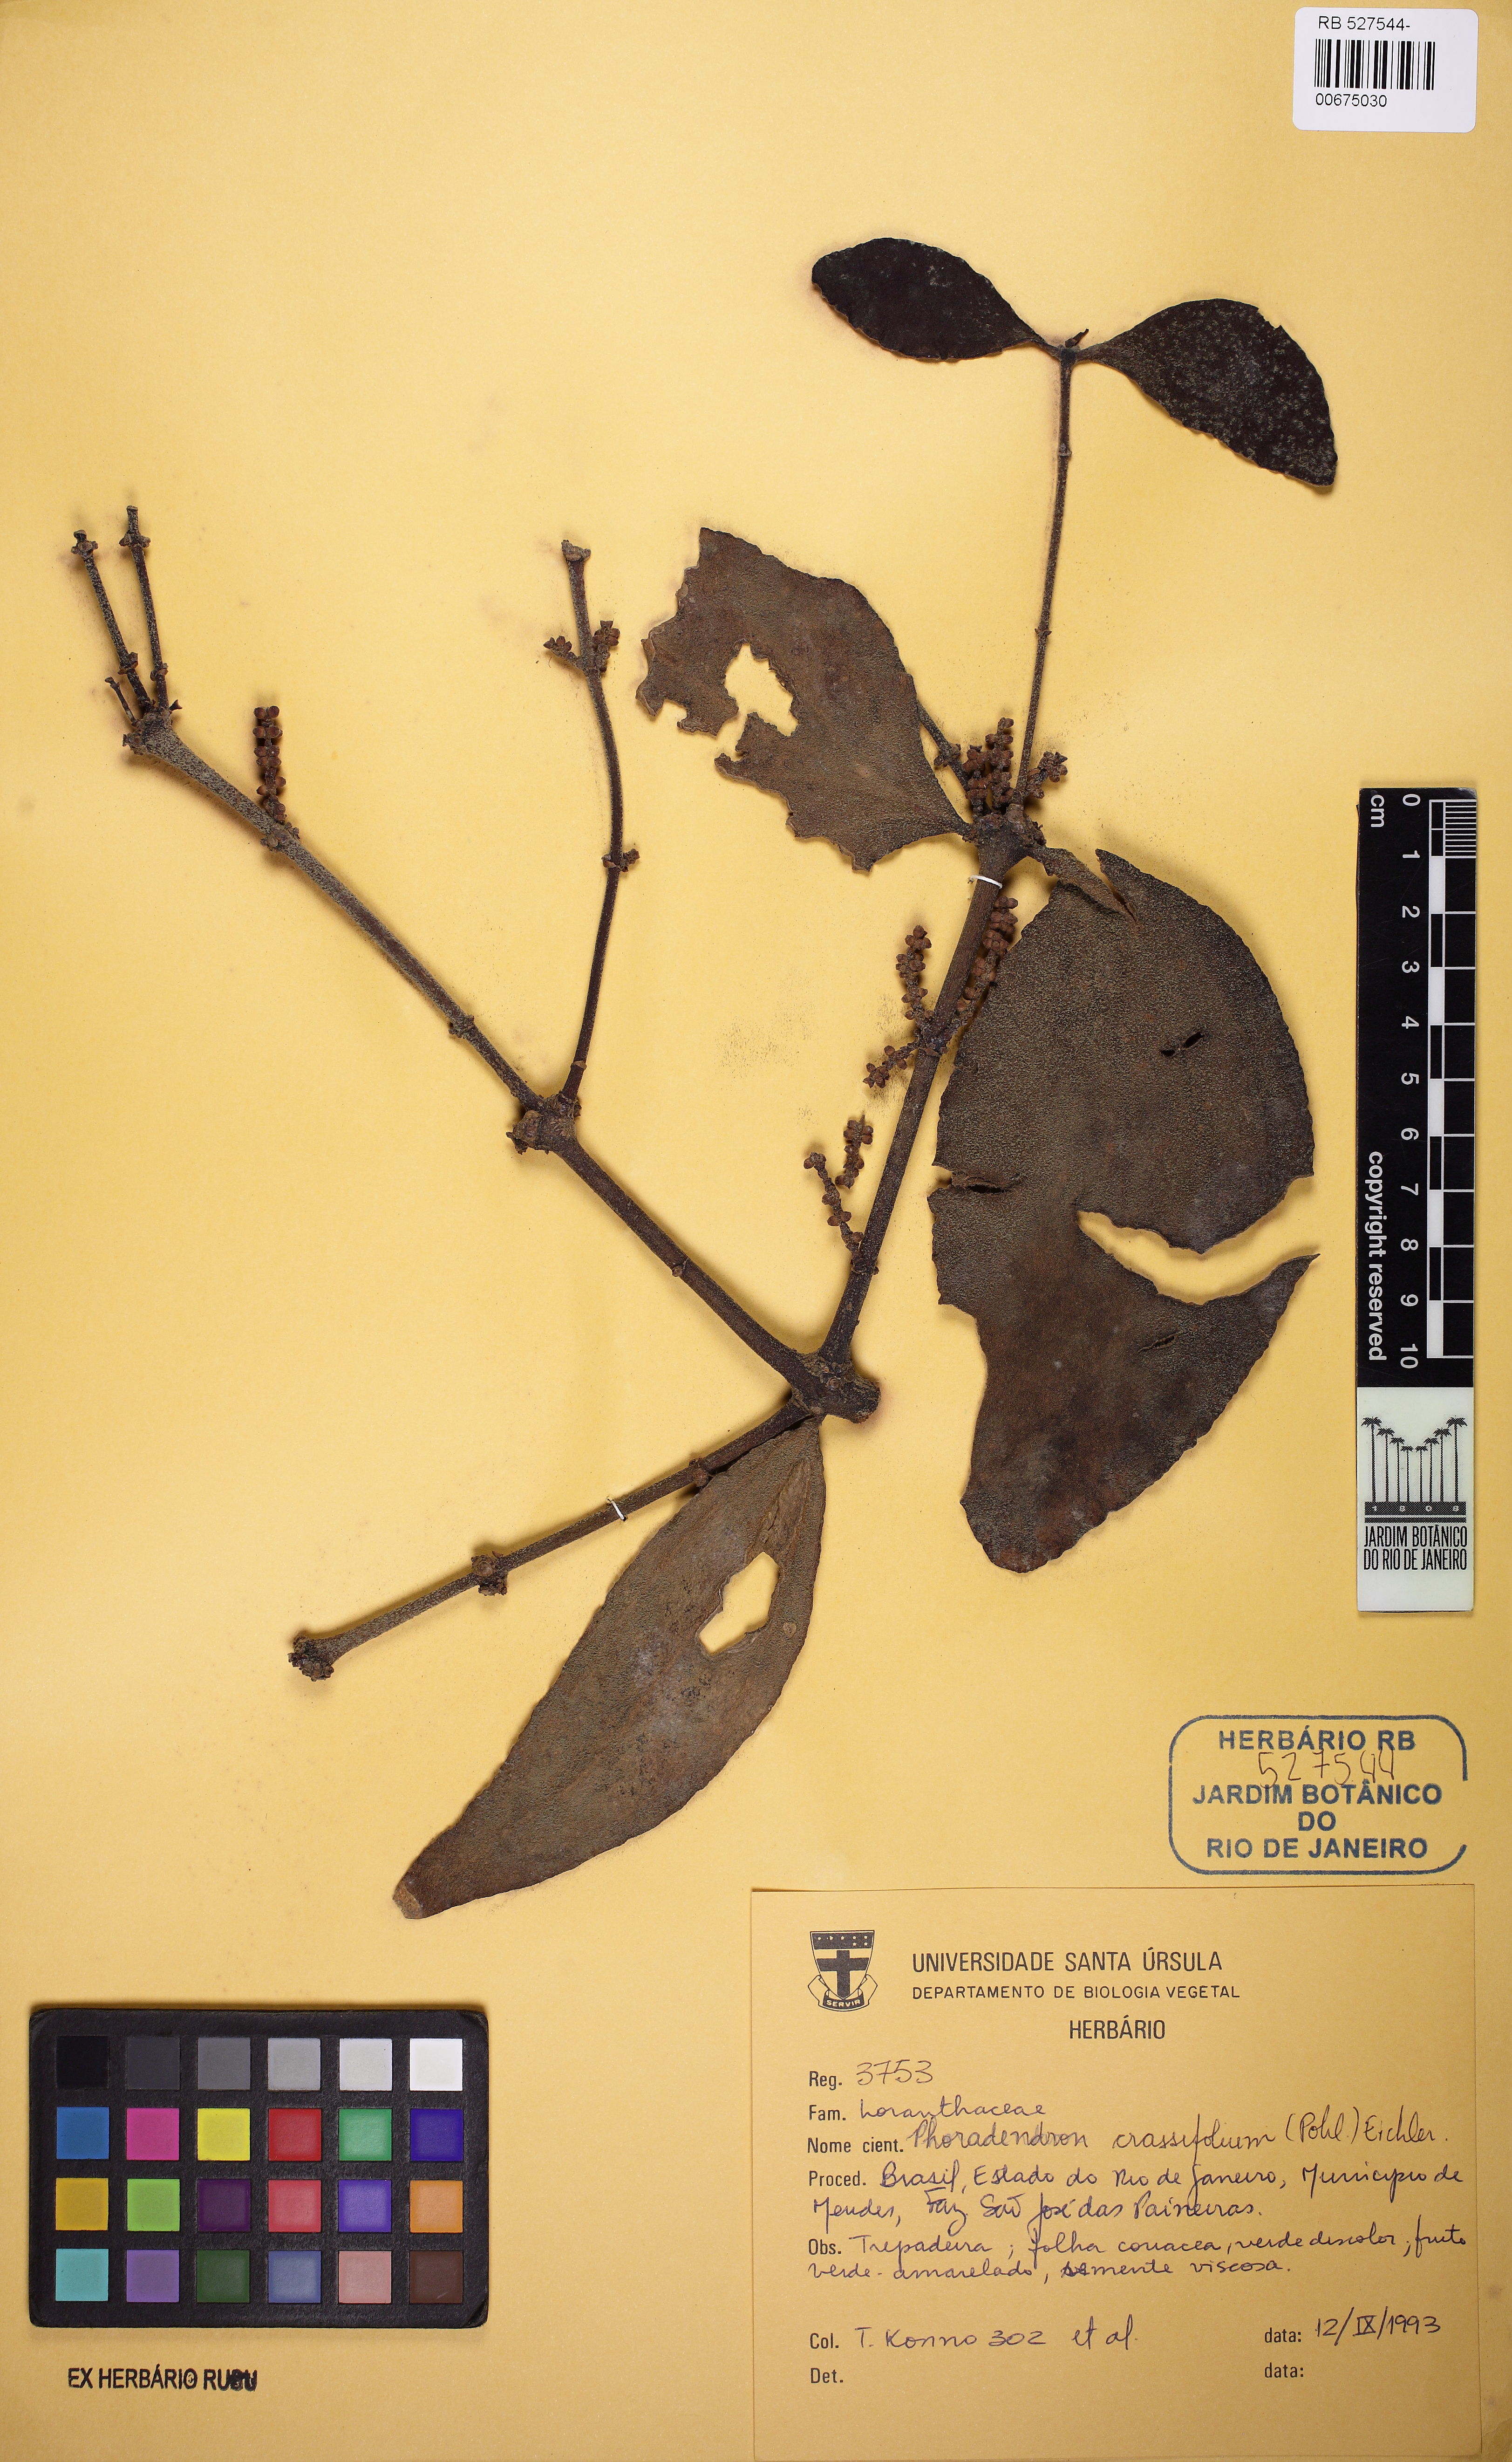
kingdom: Plantae
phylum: Tracheophyta
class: Magnoliopsida
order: Santalales
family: Viscaceae
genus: Phoradendron
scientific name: Phoradendron crassifolium
